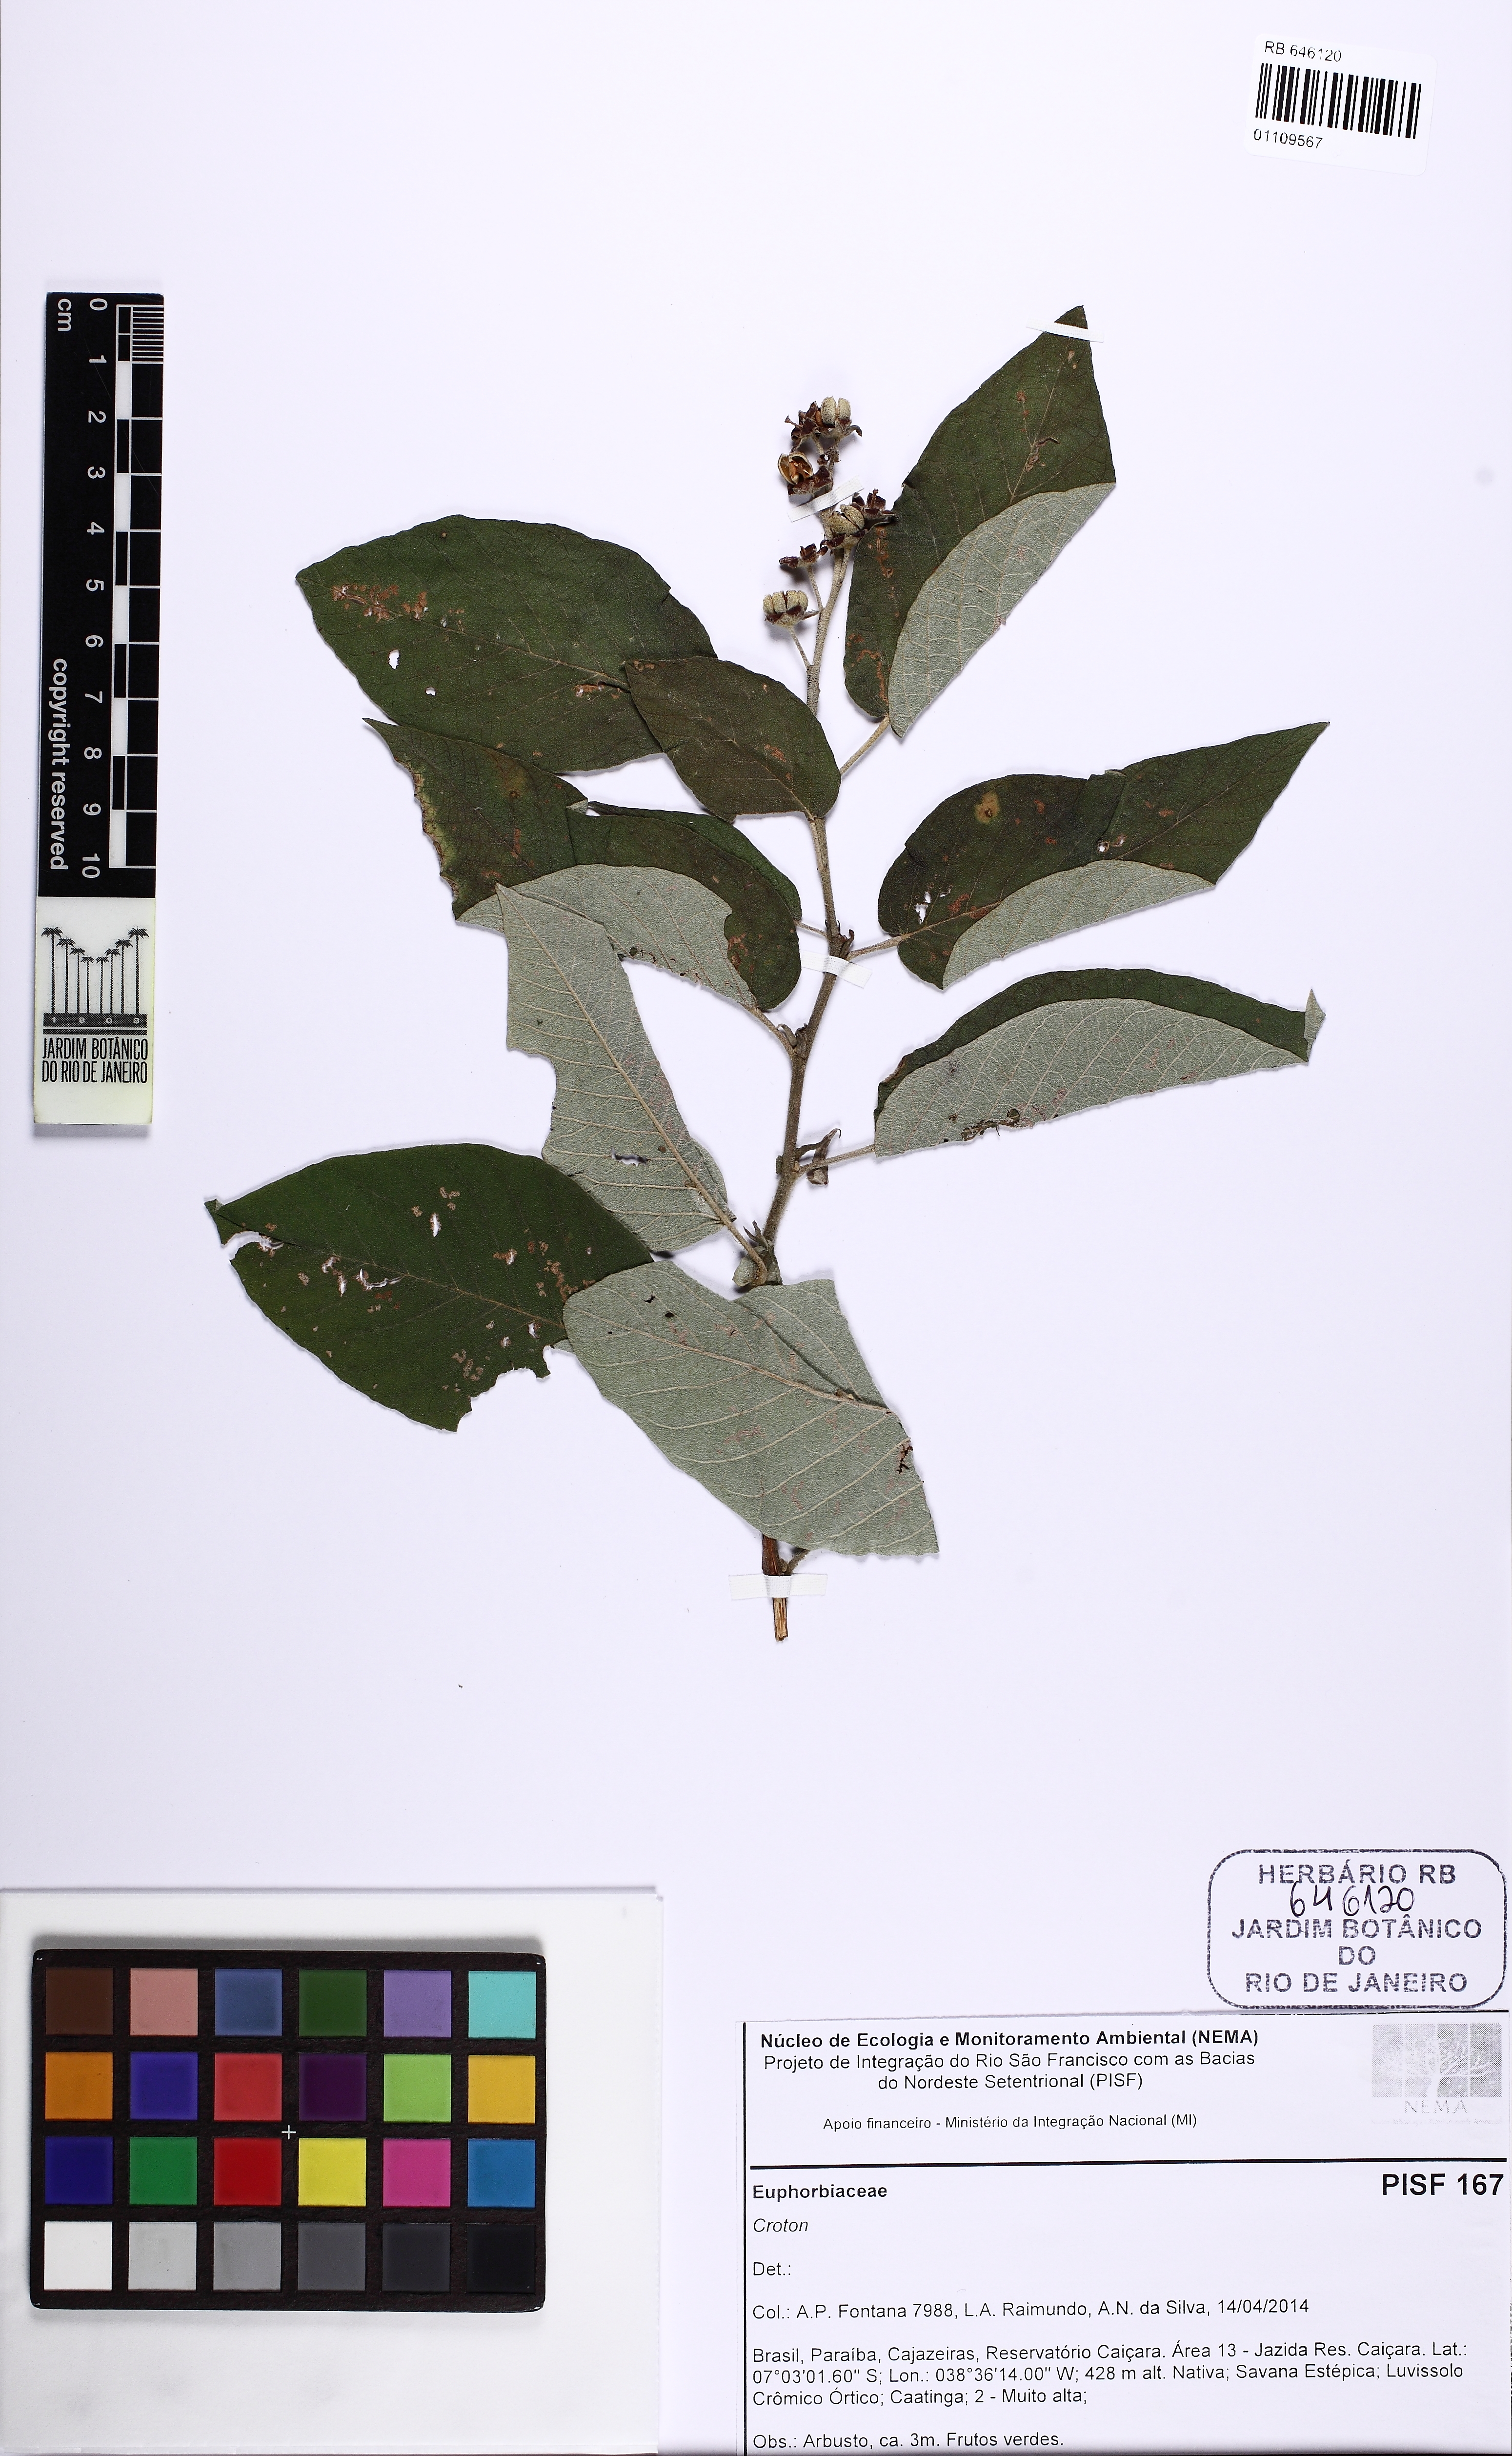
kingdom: Plantae
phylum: Tracheophyta
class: Magnoliopsida
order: Malpighiales
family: Euphorbiaceae
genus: Croton
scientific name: Croton
